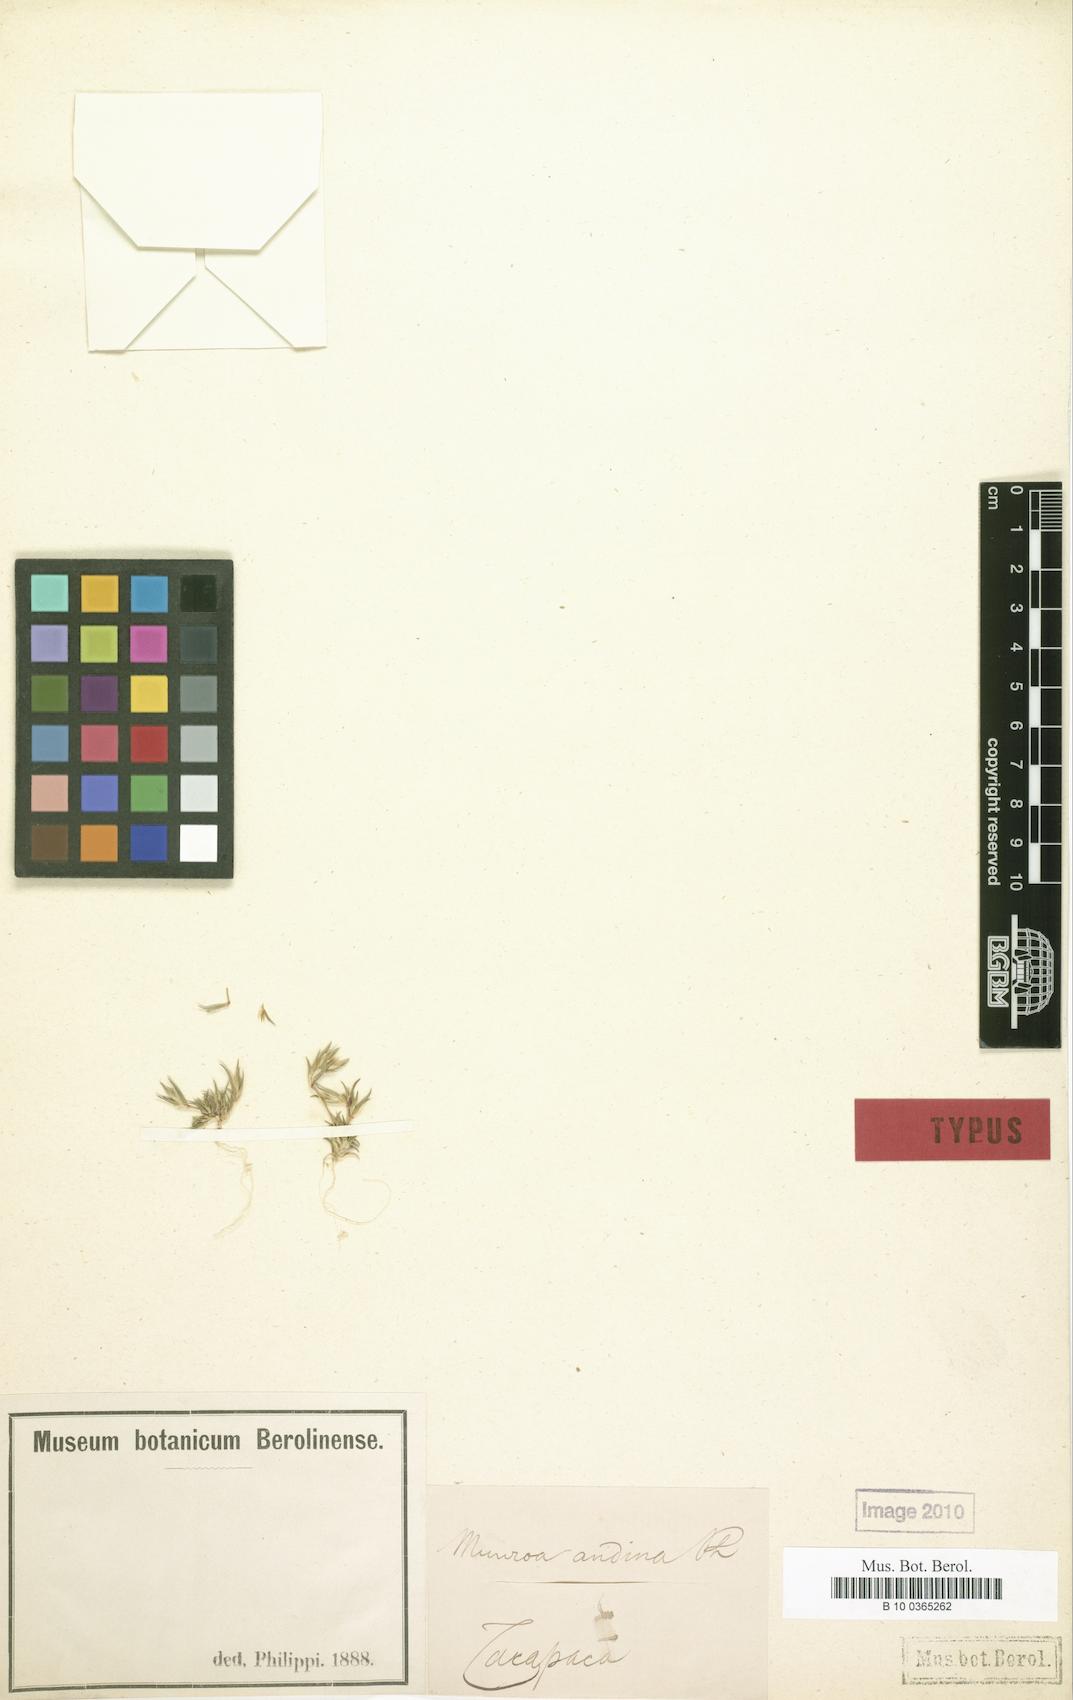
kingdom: Plantae
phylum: Tracheophyta
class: Liliopsida
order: Poales
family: Poaceae
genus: Munroa
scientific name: Munroa
